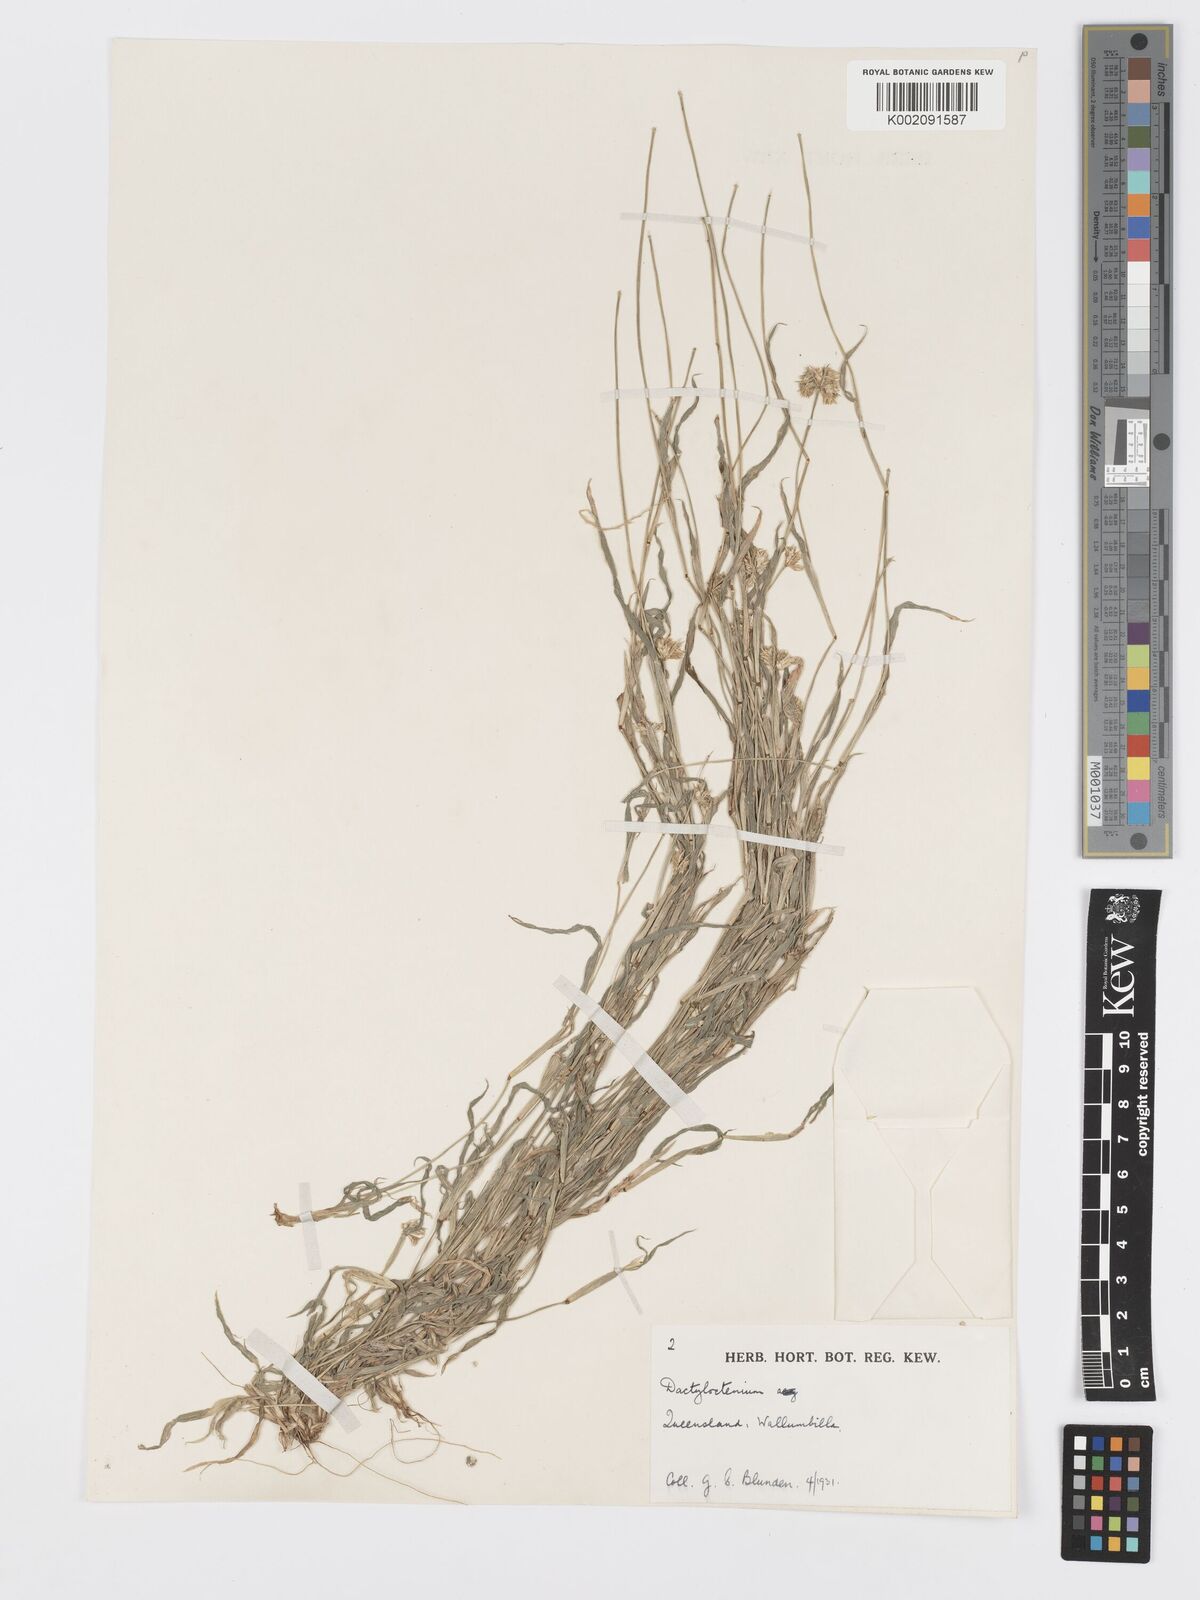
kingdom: Plantae
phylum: Tracheophyta
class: Liliopsida
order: Poales
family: Poaceae
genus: Dactyloctenium
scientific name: Dactyloctenium radulans
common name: Button-grass
